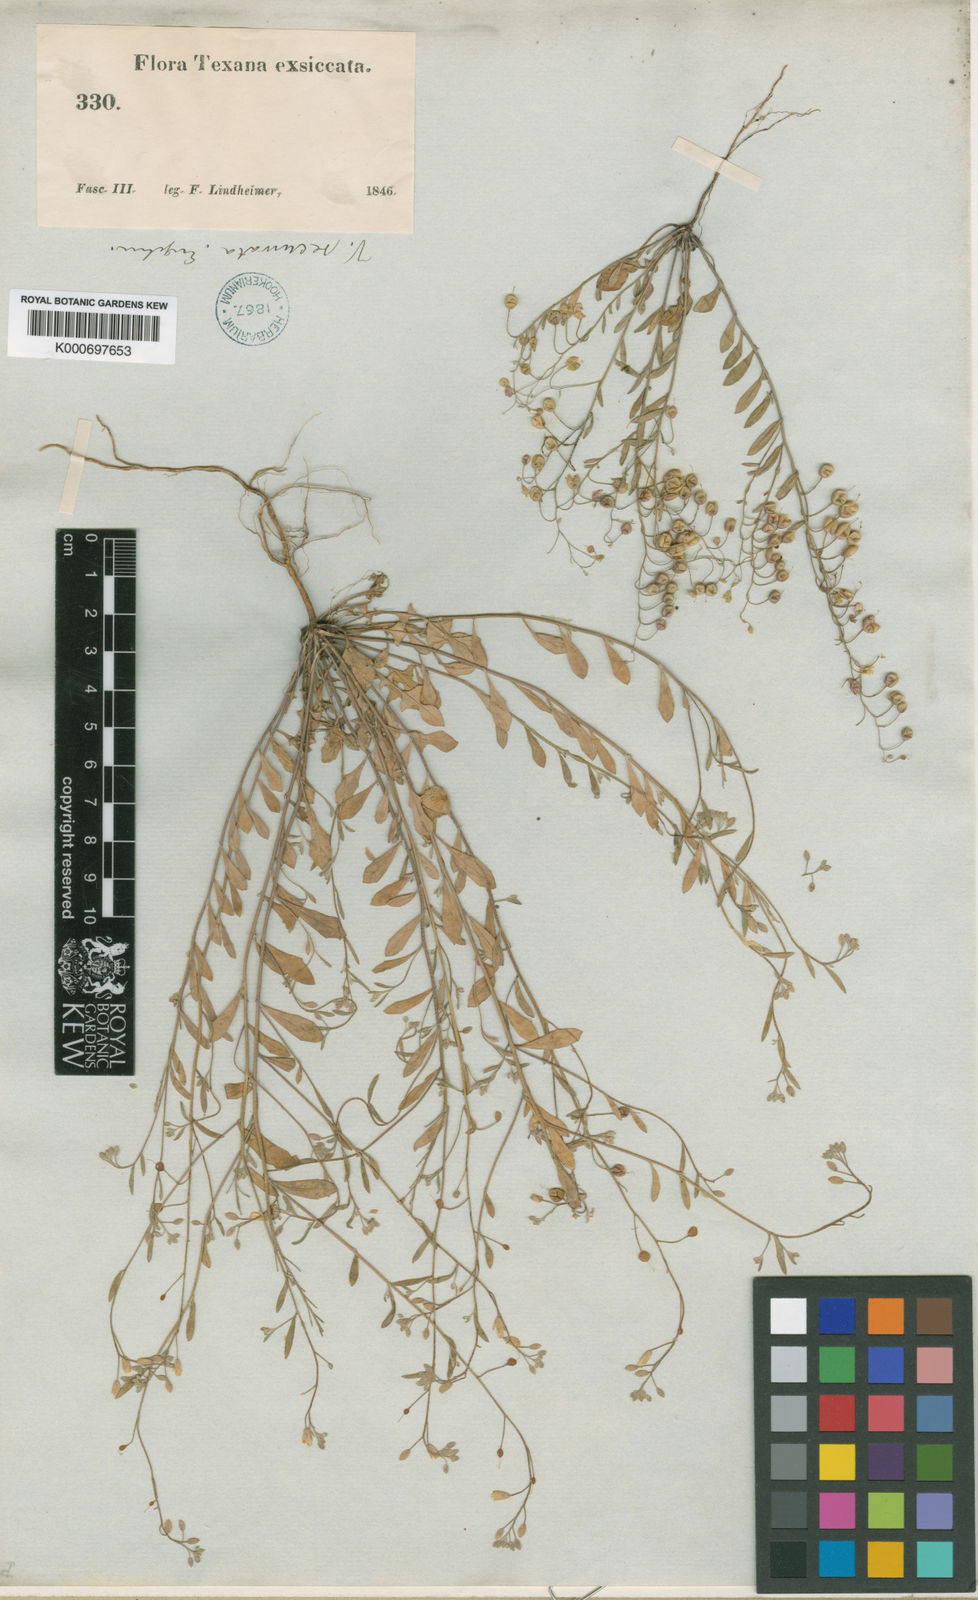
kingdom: Plantae
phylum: Tracheophyta
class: Magnoliopsida
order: Brassicales
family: Brassicaceae
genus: Physaria
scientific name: Physaria recurvata
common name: Gaslight bladderpod
